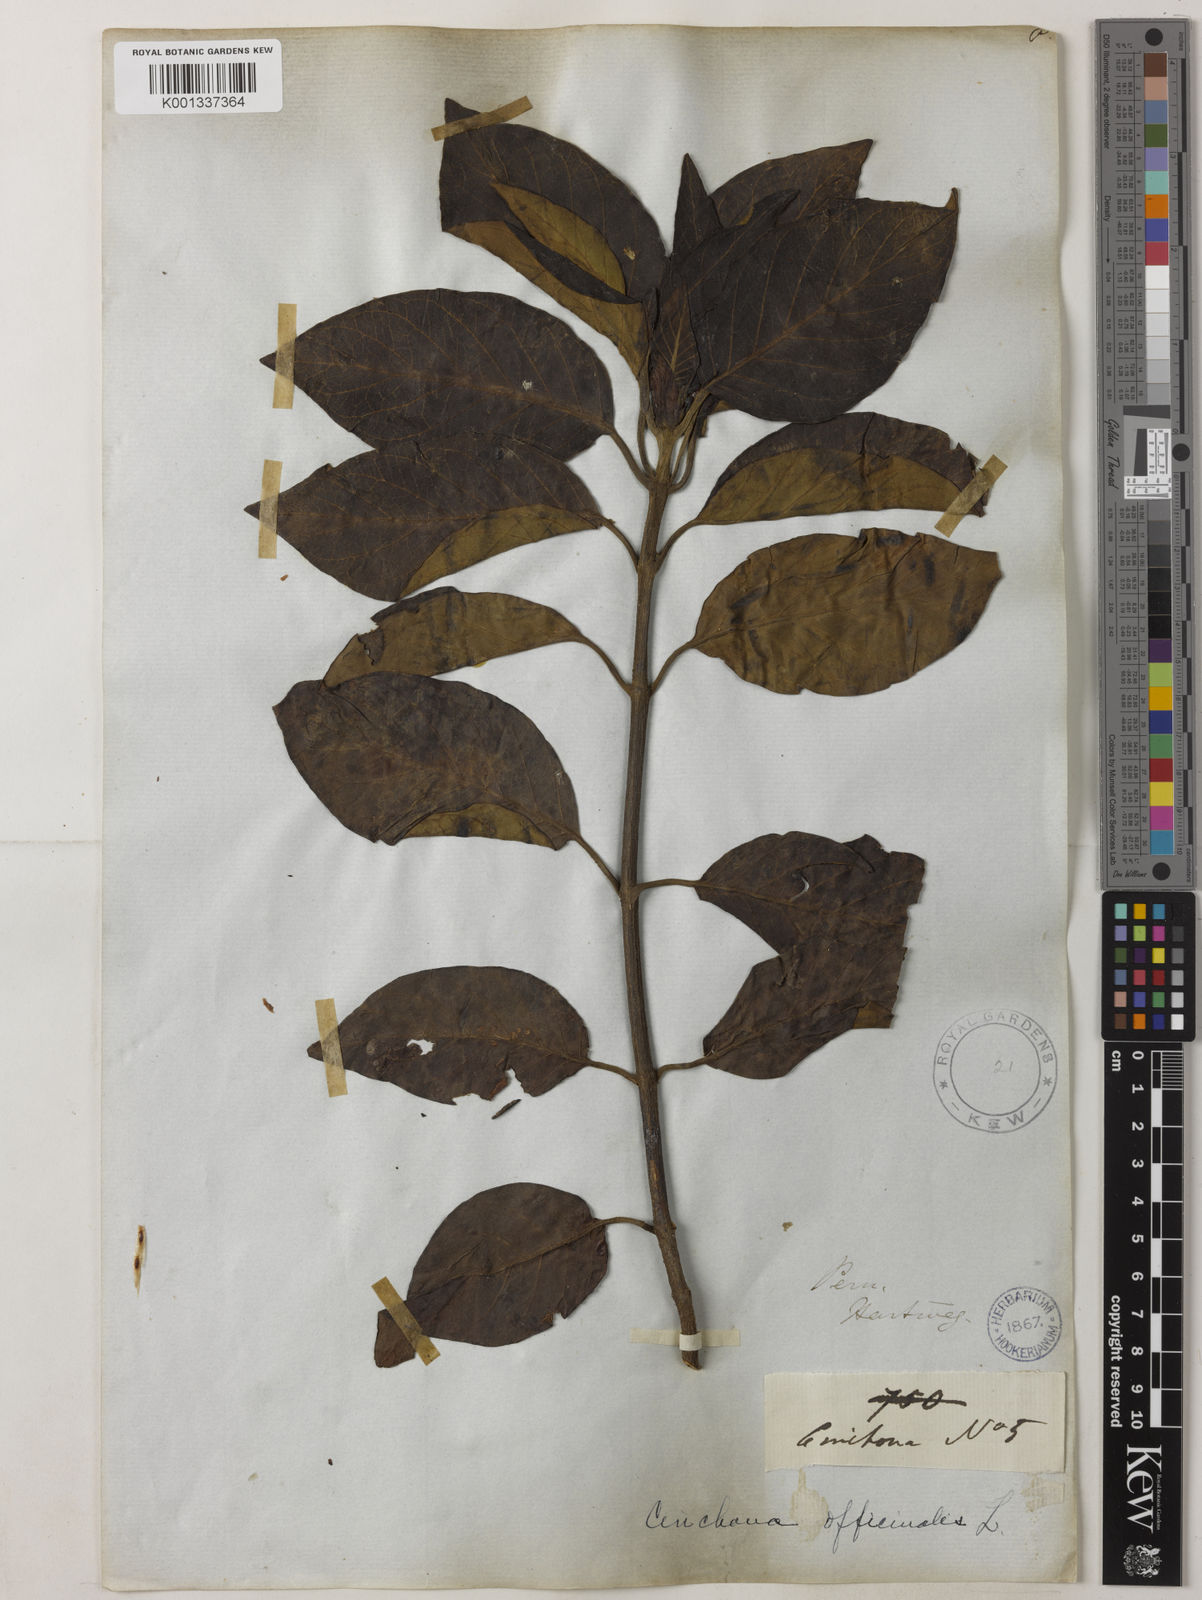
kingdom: Plantae
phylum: Tracheophyta
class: Magnoliopsida
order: Gentianales
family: Rubiaceae
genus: Cinchona
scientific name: Cinchona
